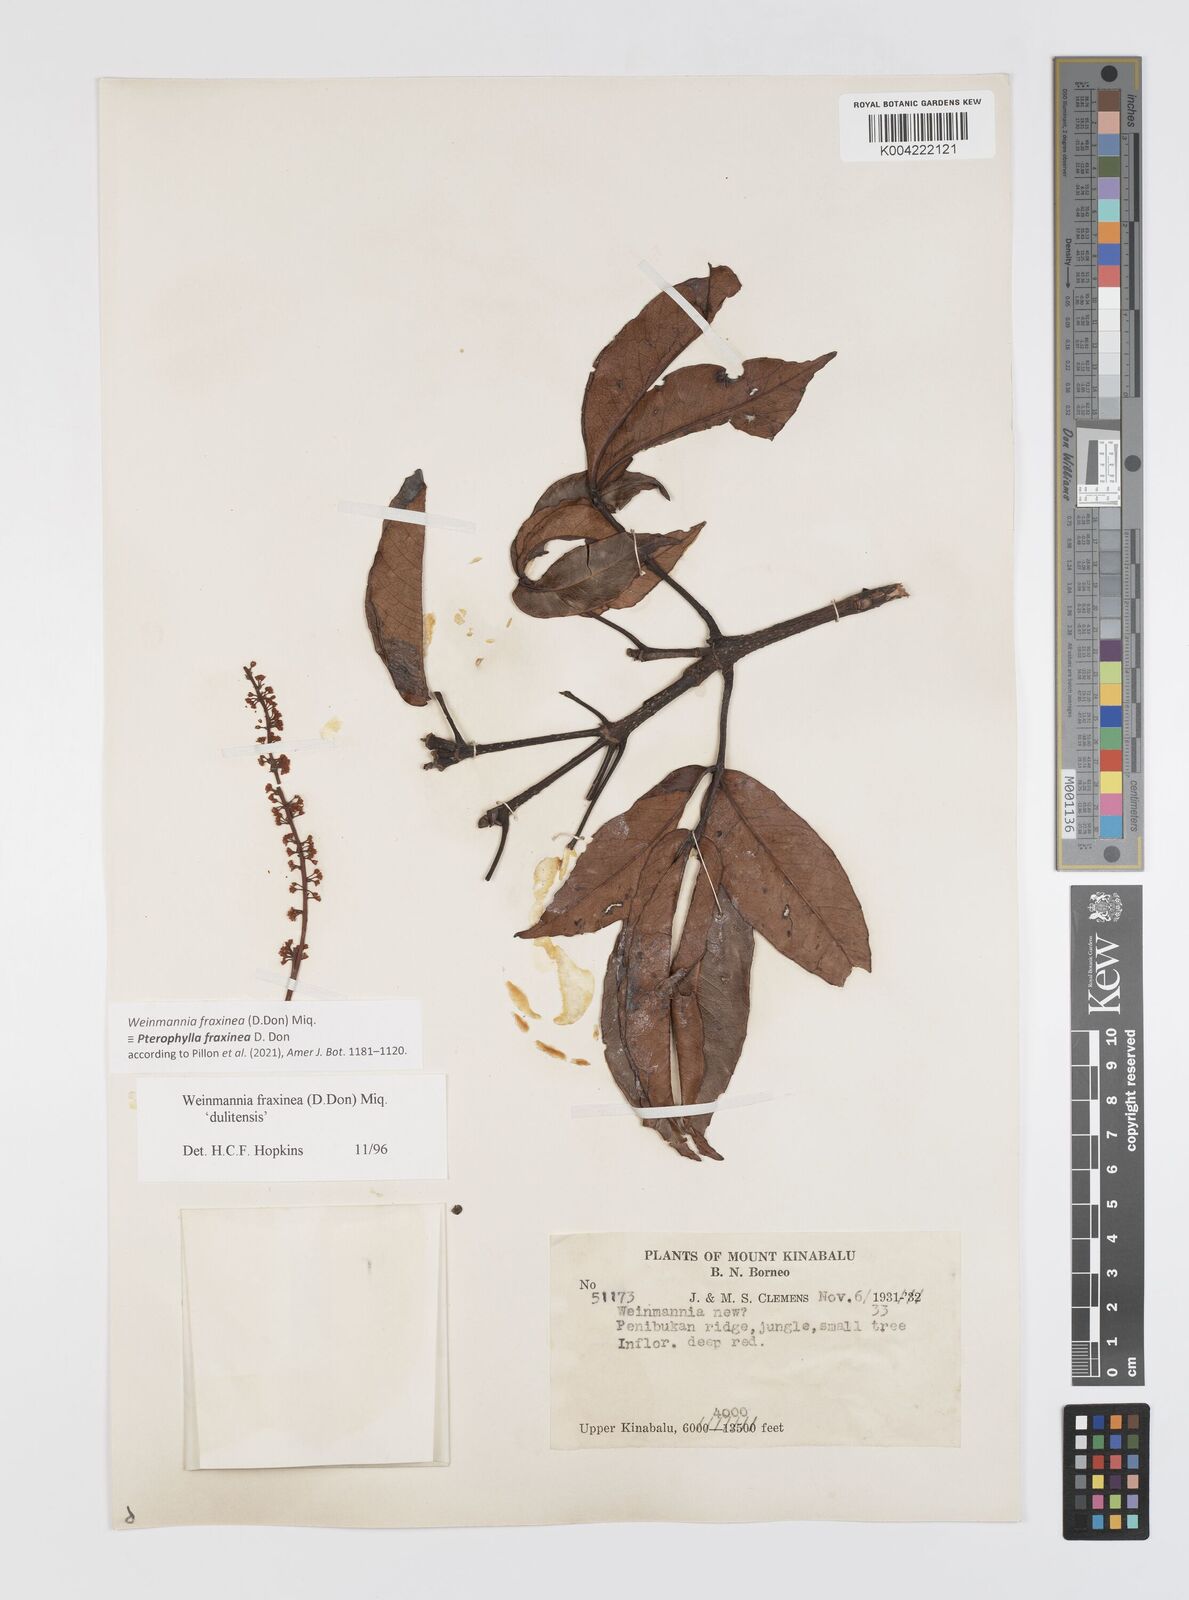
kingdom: Plantae
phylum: Tracheophyta
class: Magnoliopsida
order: Oxalidales
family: Cunoniaceae
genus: Pterophylla
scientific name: Pterophylla fraxinea
